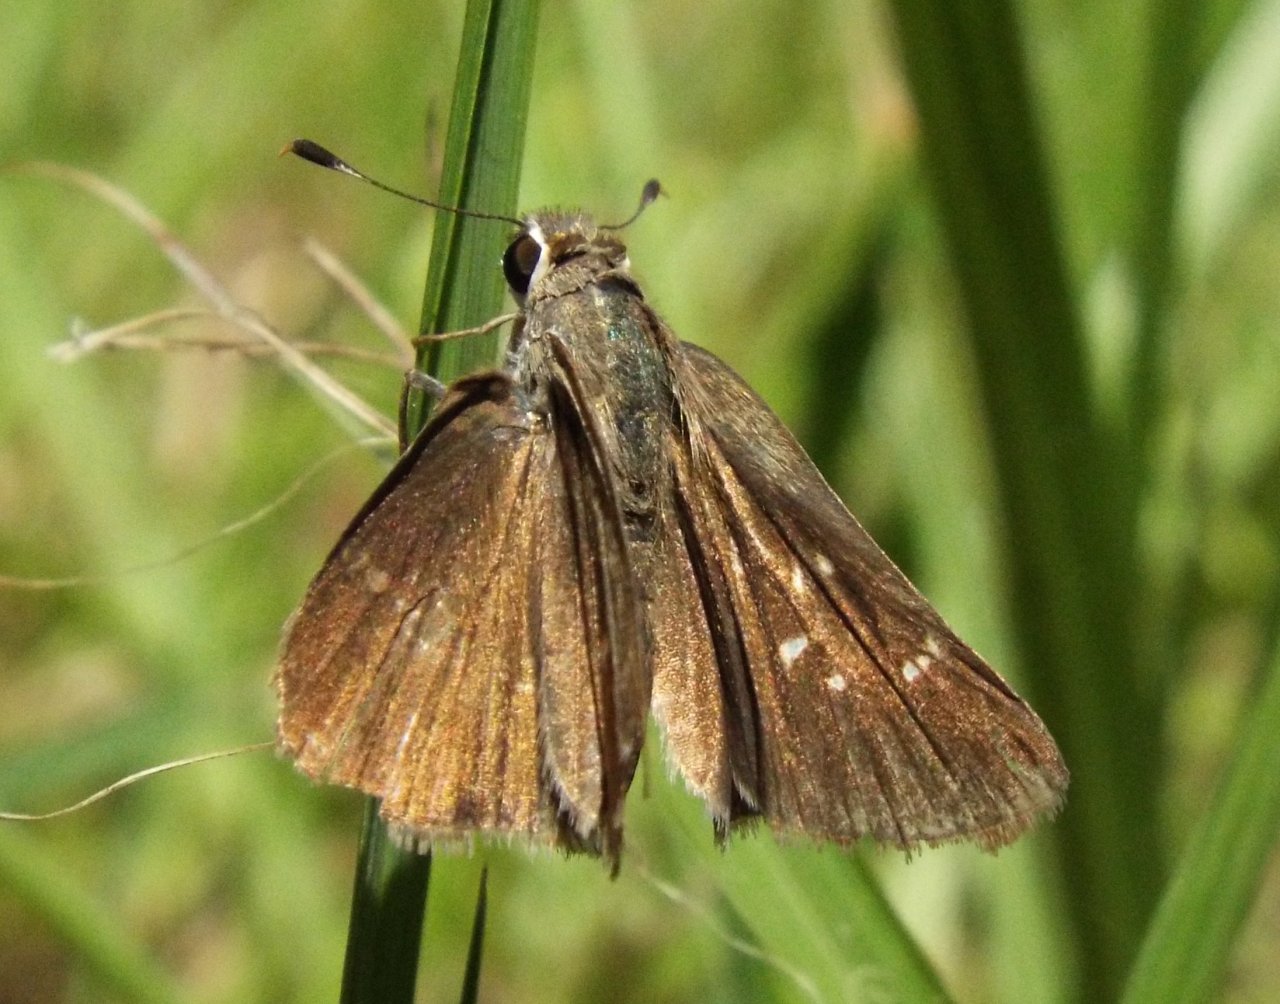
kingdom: Animalia
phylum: Arthropoda
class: Insecta
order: Lepidoptera
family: Hesperiidae
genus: Lerodea
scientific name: Lerodea eufala
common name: Eufala Skipper
